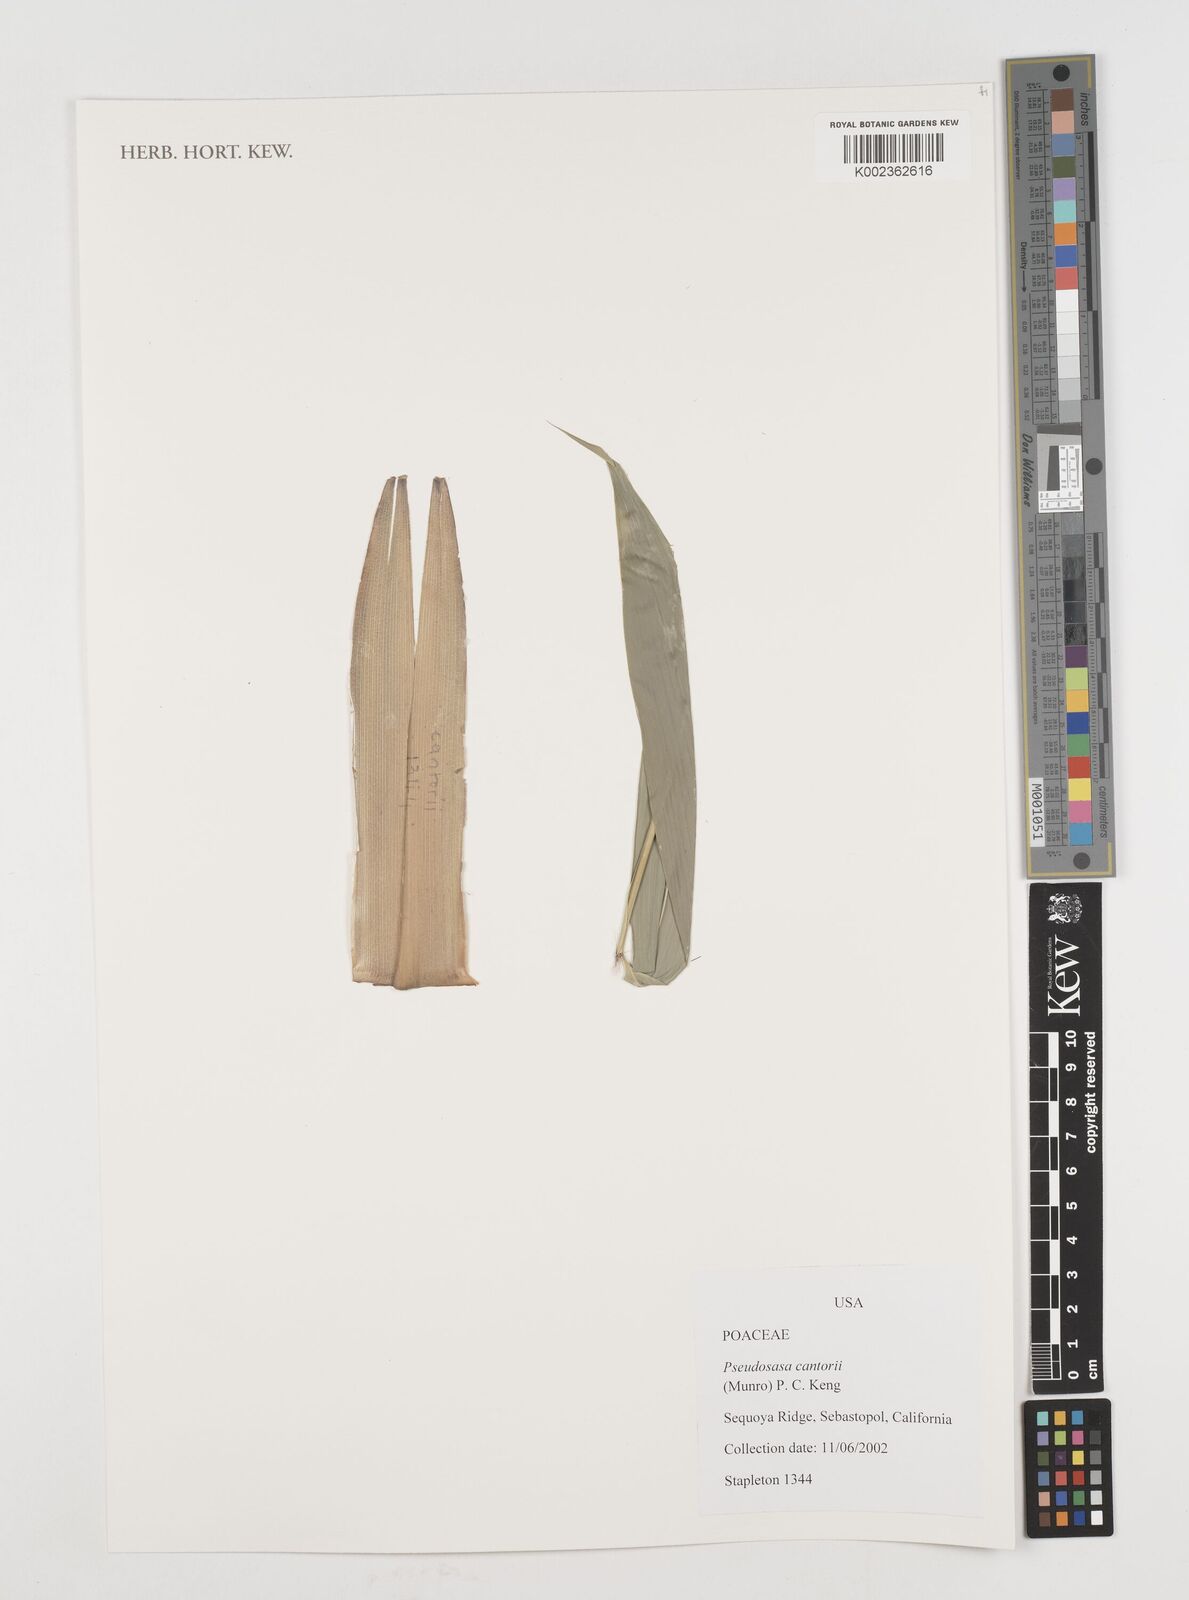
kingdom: Plantae
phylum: Tracheophyta
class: Liliopsida
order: Poales
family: Poaceae
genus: Pseudosasa
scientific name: Pseudosasa cantorii
